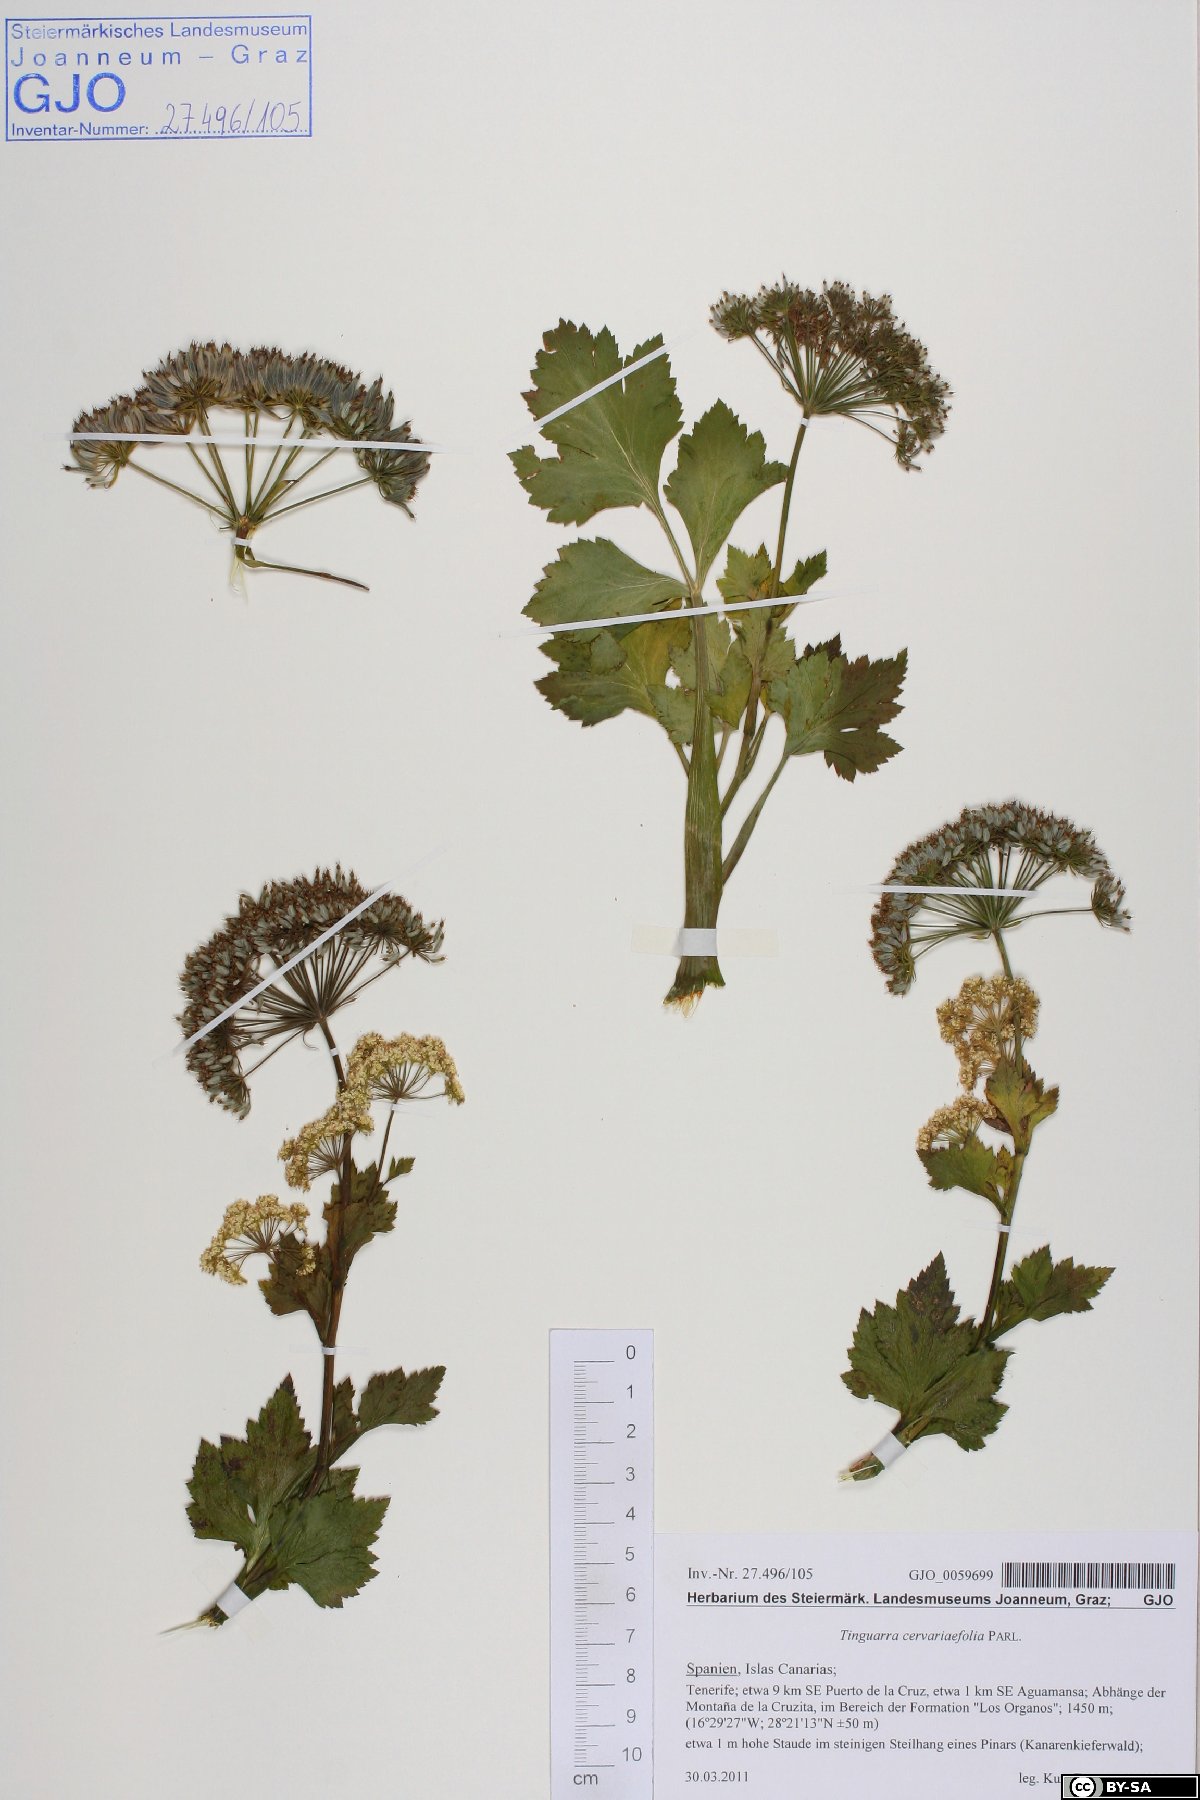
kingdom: Plantae
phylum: Tracheophyta
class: Magnoliopsida
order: Apiales
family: Apiaceae
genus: Athamanta
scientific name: Athamanta cervariifolia
